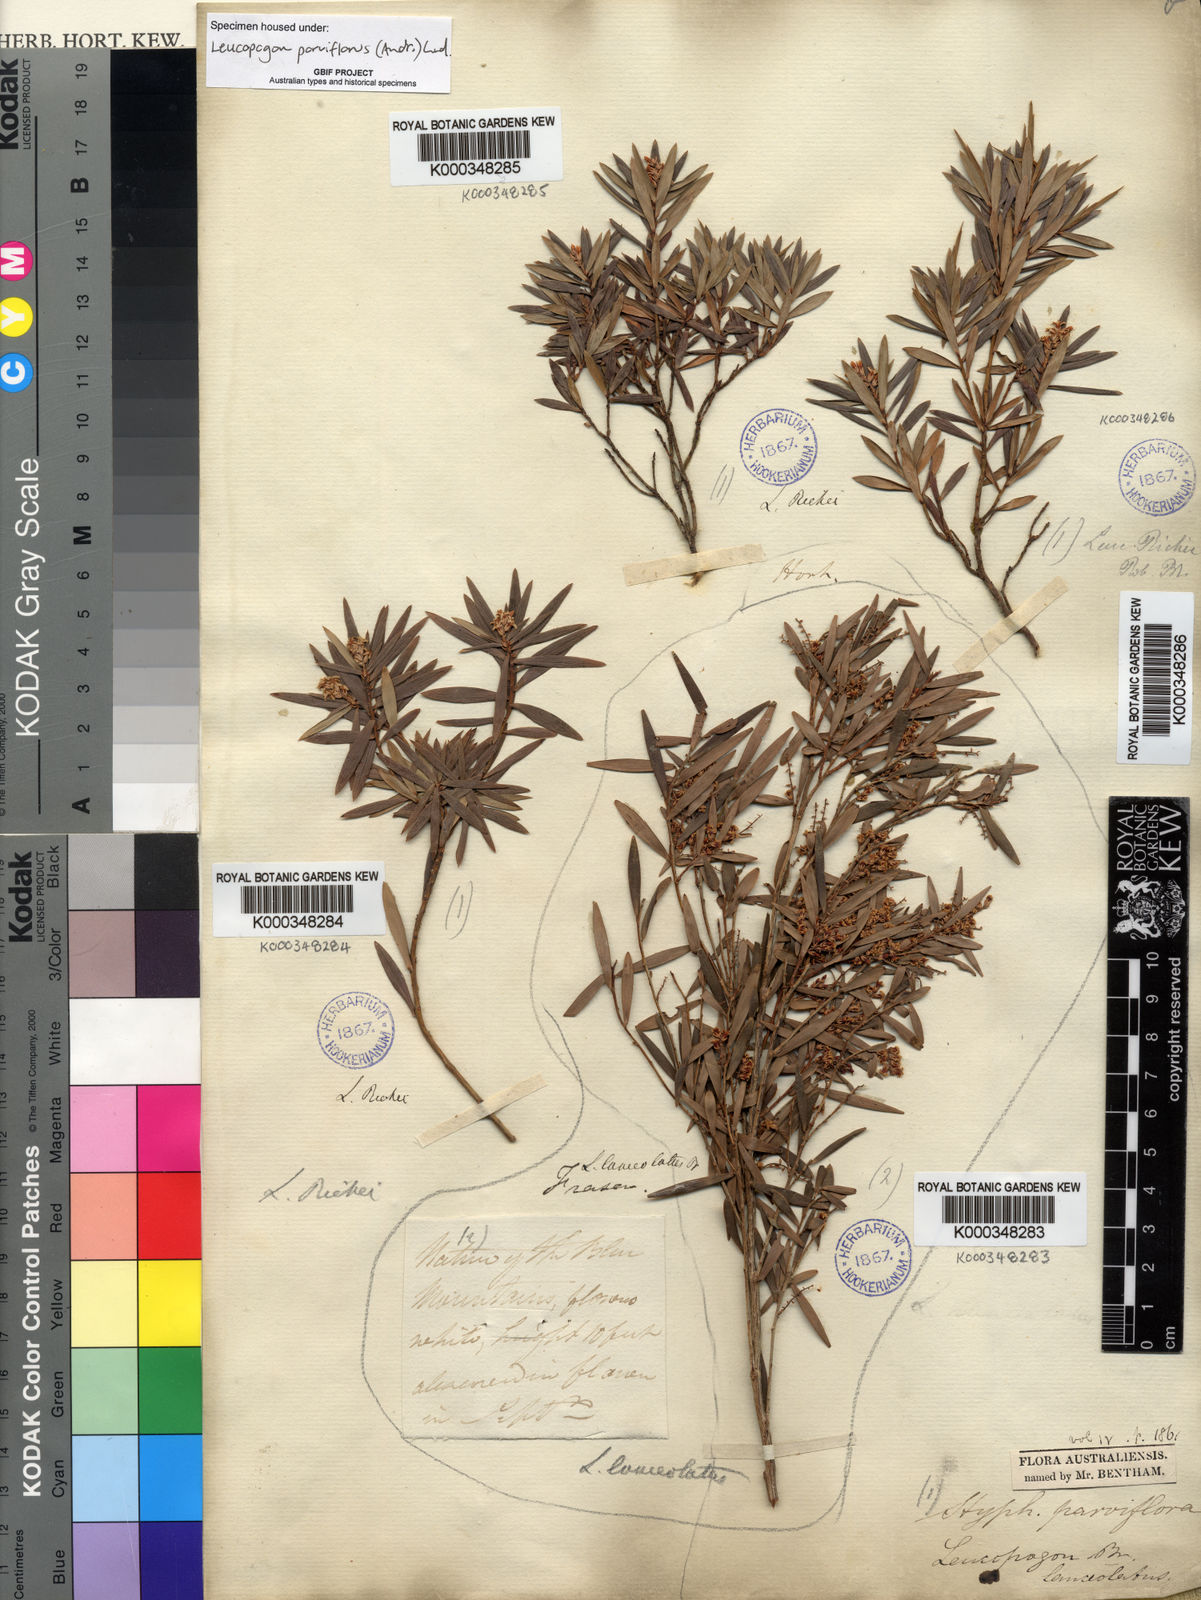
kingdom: Plantae
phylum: Tracheophyta
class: Magnoliopsida
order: Ericales
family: Ericaceae
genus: Leptecophylla
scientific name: Leptecophylla parvifolia
